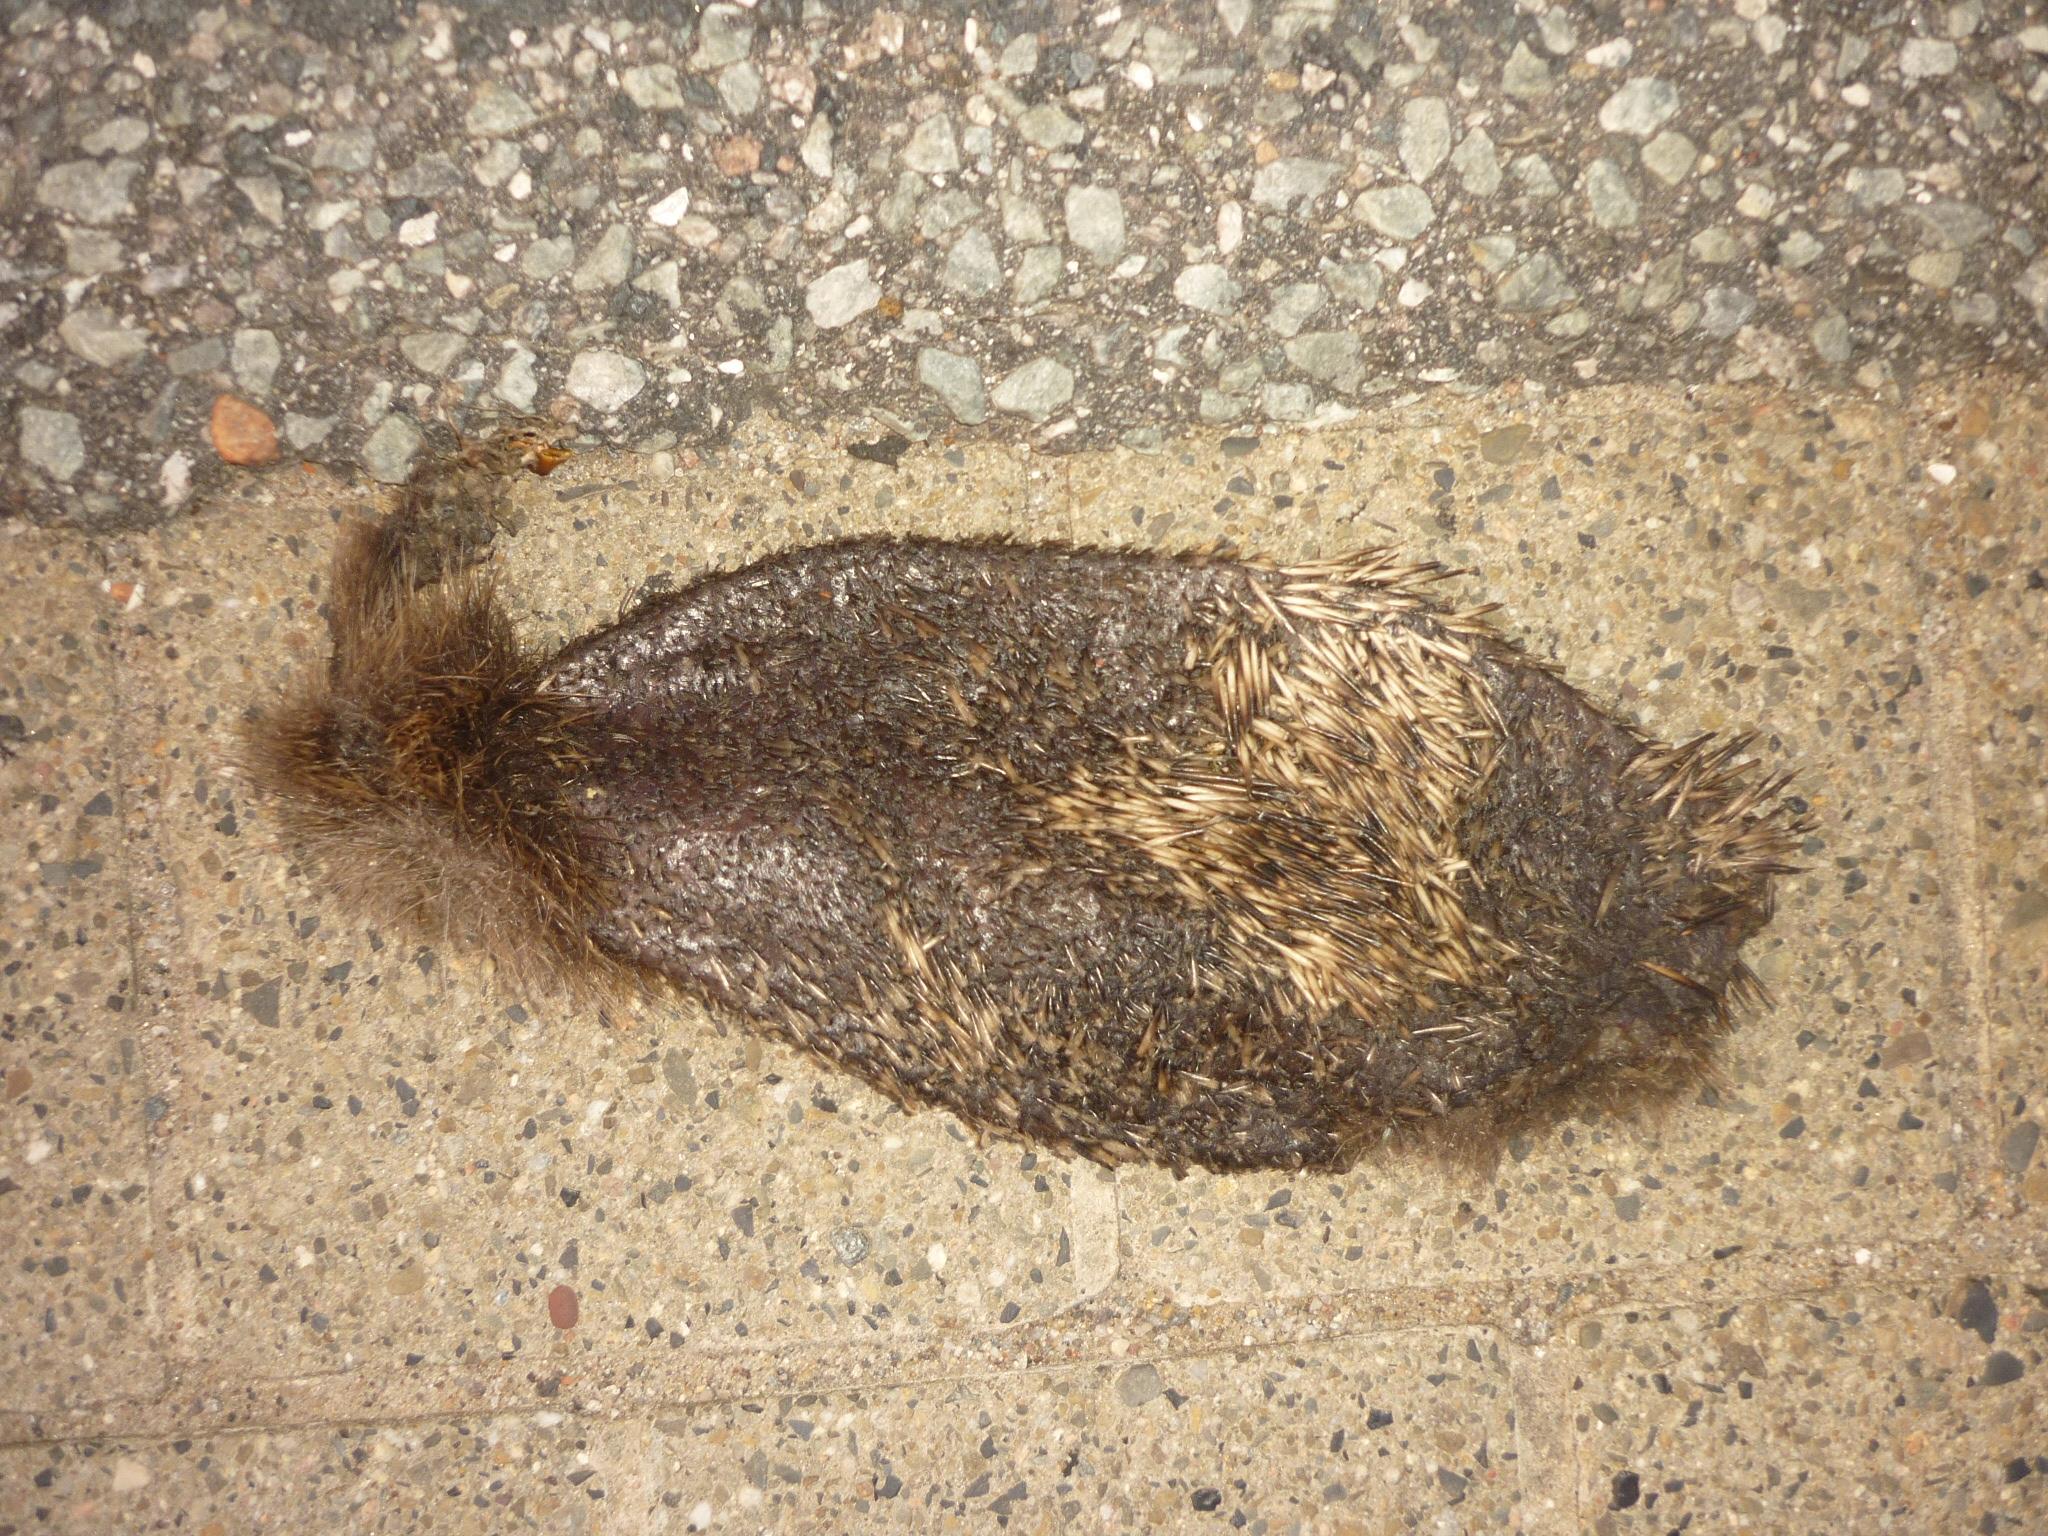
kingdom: Animalia
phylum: Chordata
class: Mammalia
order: Erinaceomorpha
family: Erinaceidae
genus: Erinaceus
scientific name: Erinaceus
